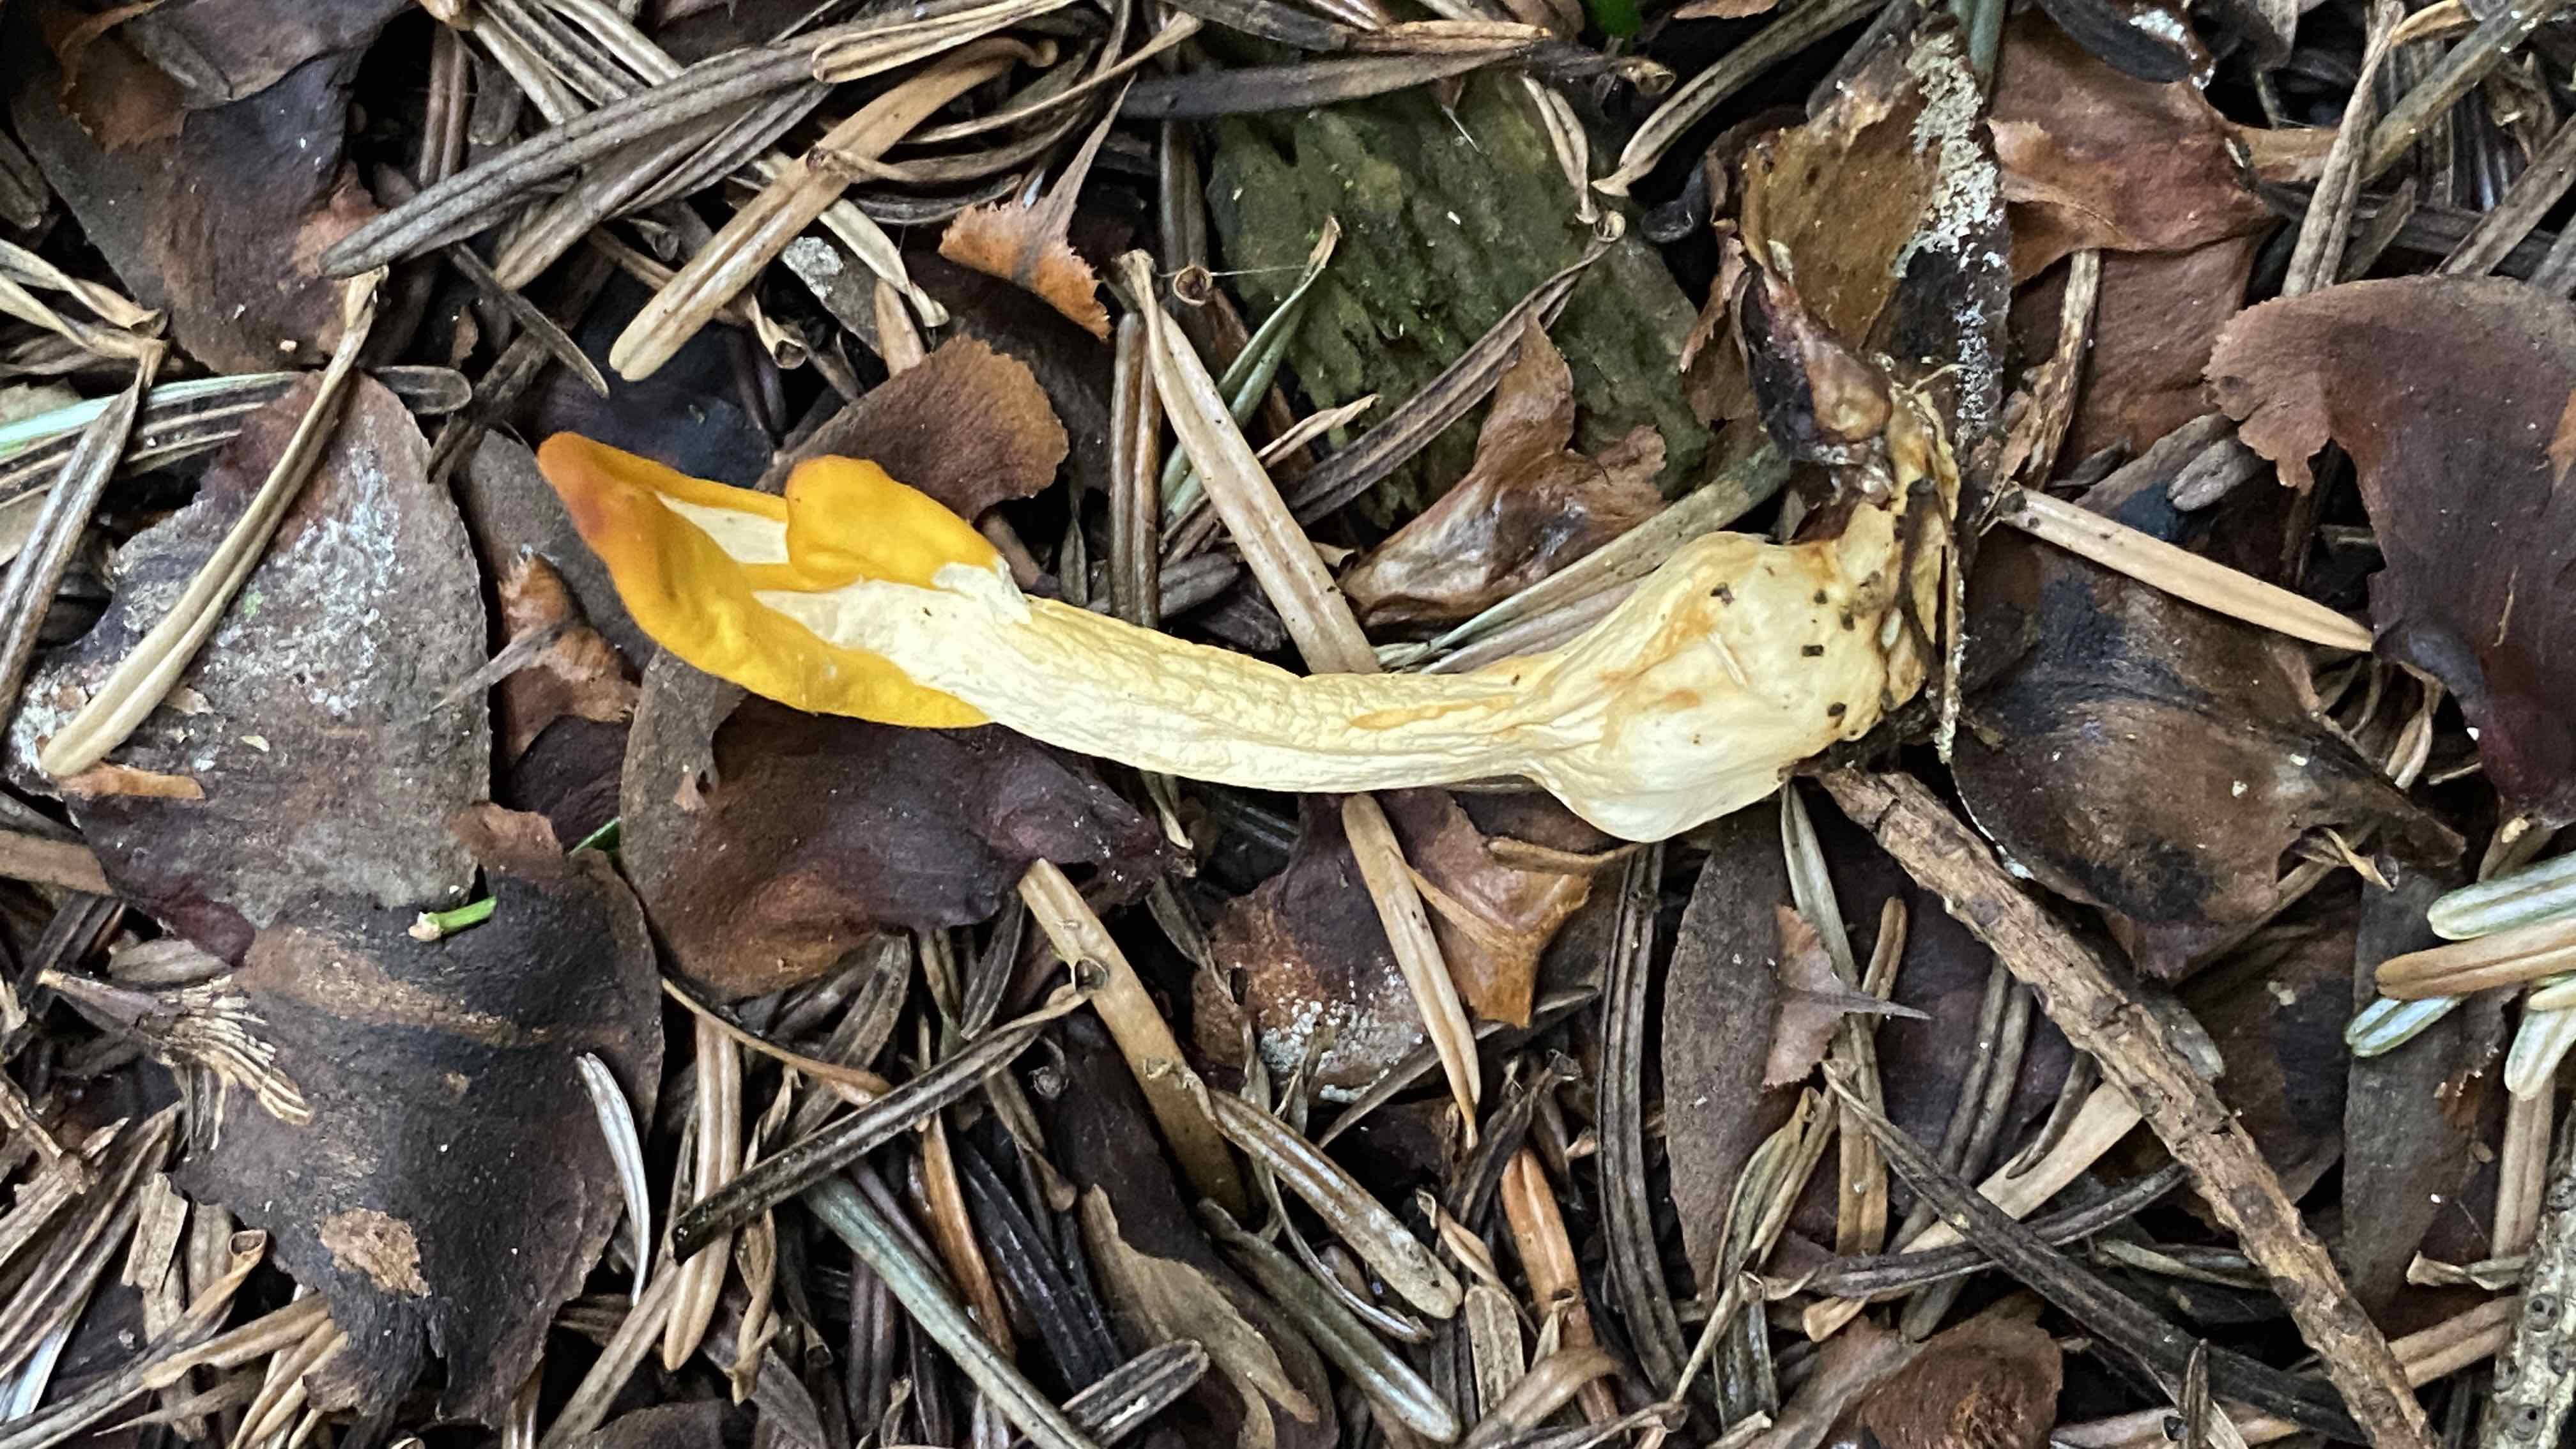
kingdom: Fungi
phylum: Ascomycota
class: Leotiomycetes
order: Rhytismatales
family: Cudoniaceae
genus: Spathularia
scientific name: Spathularia flavida
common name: gul spatelsvamp
